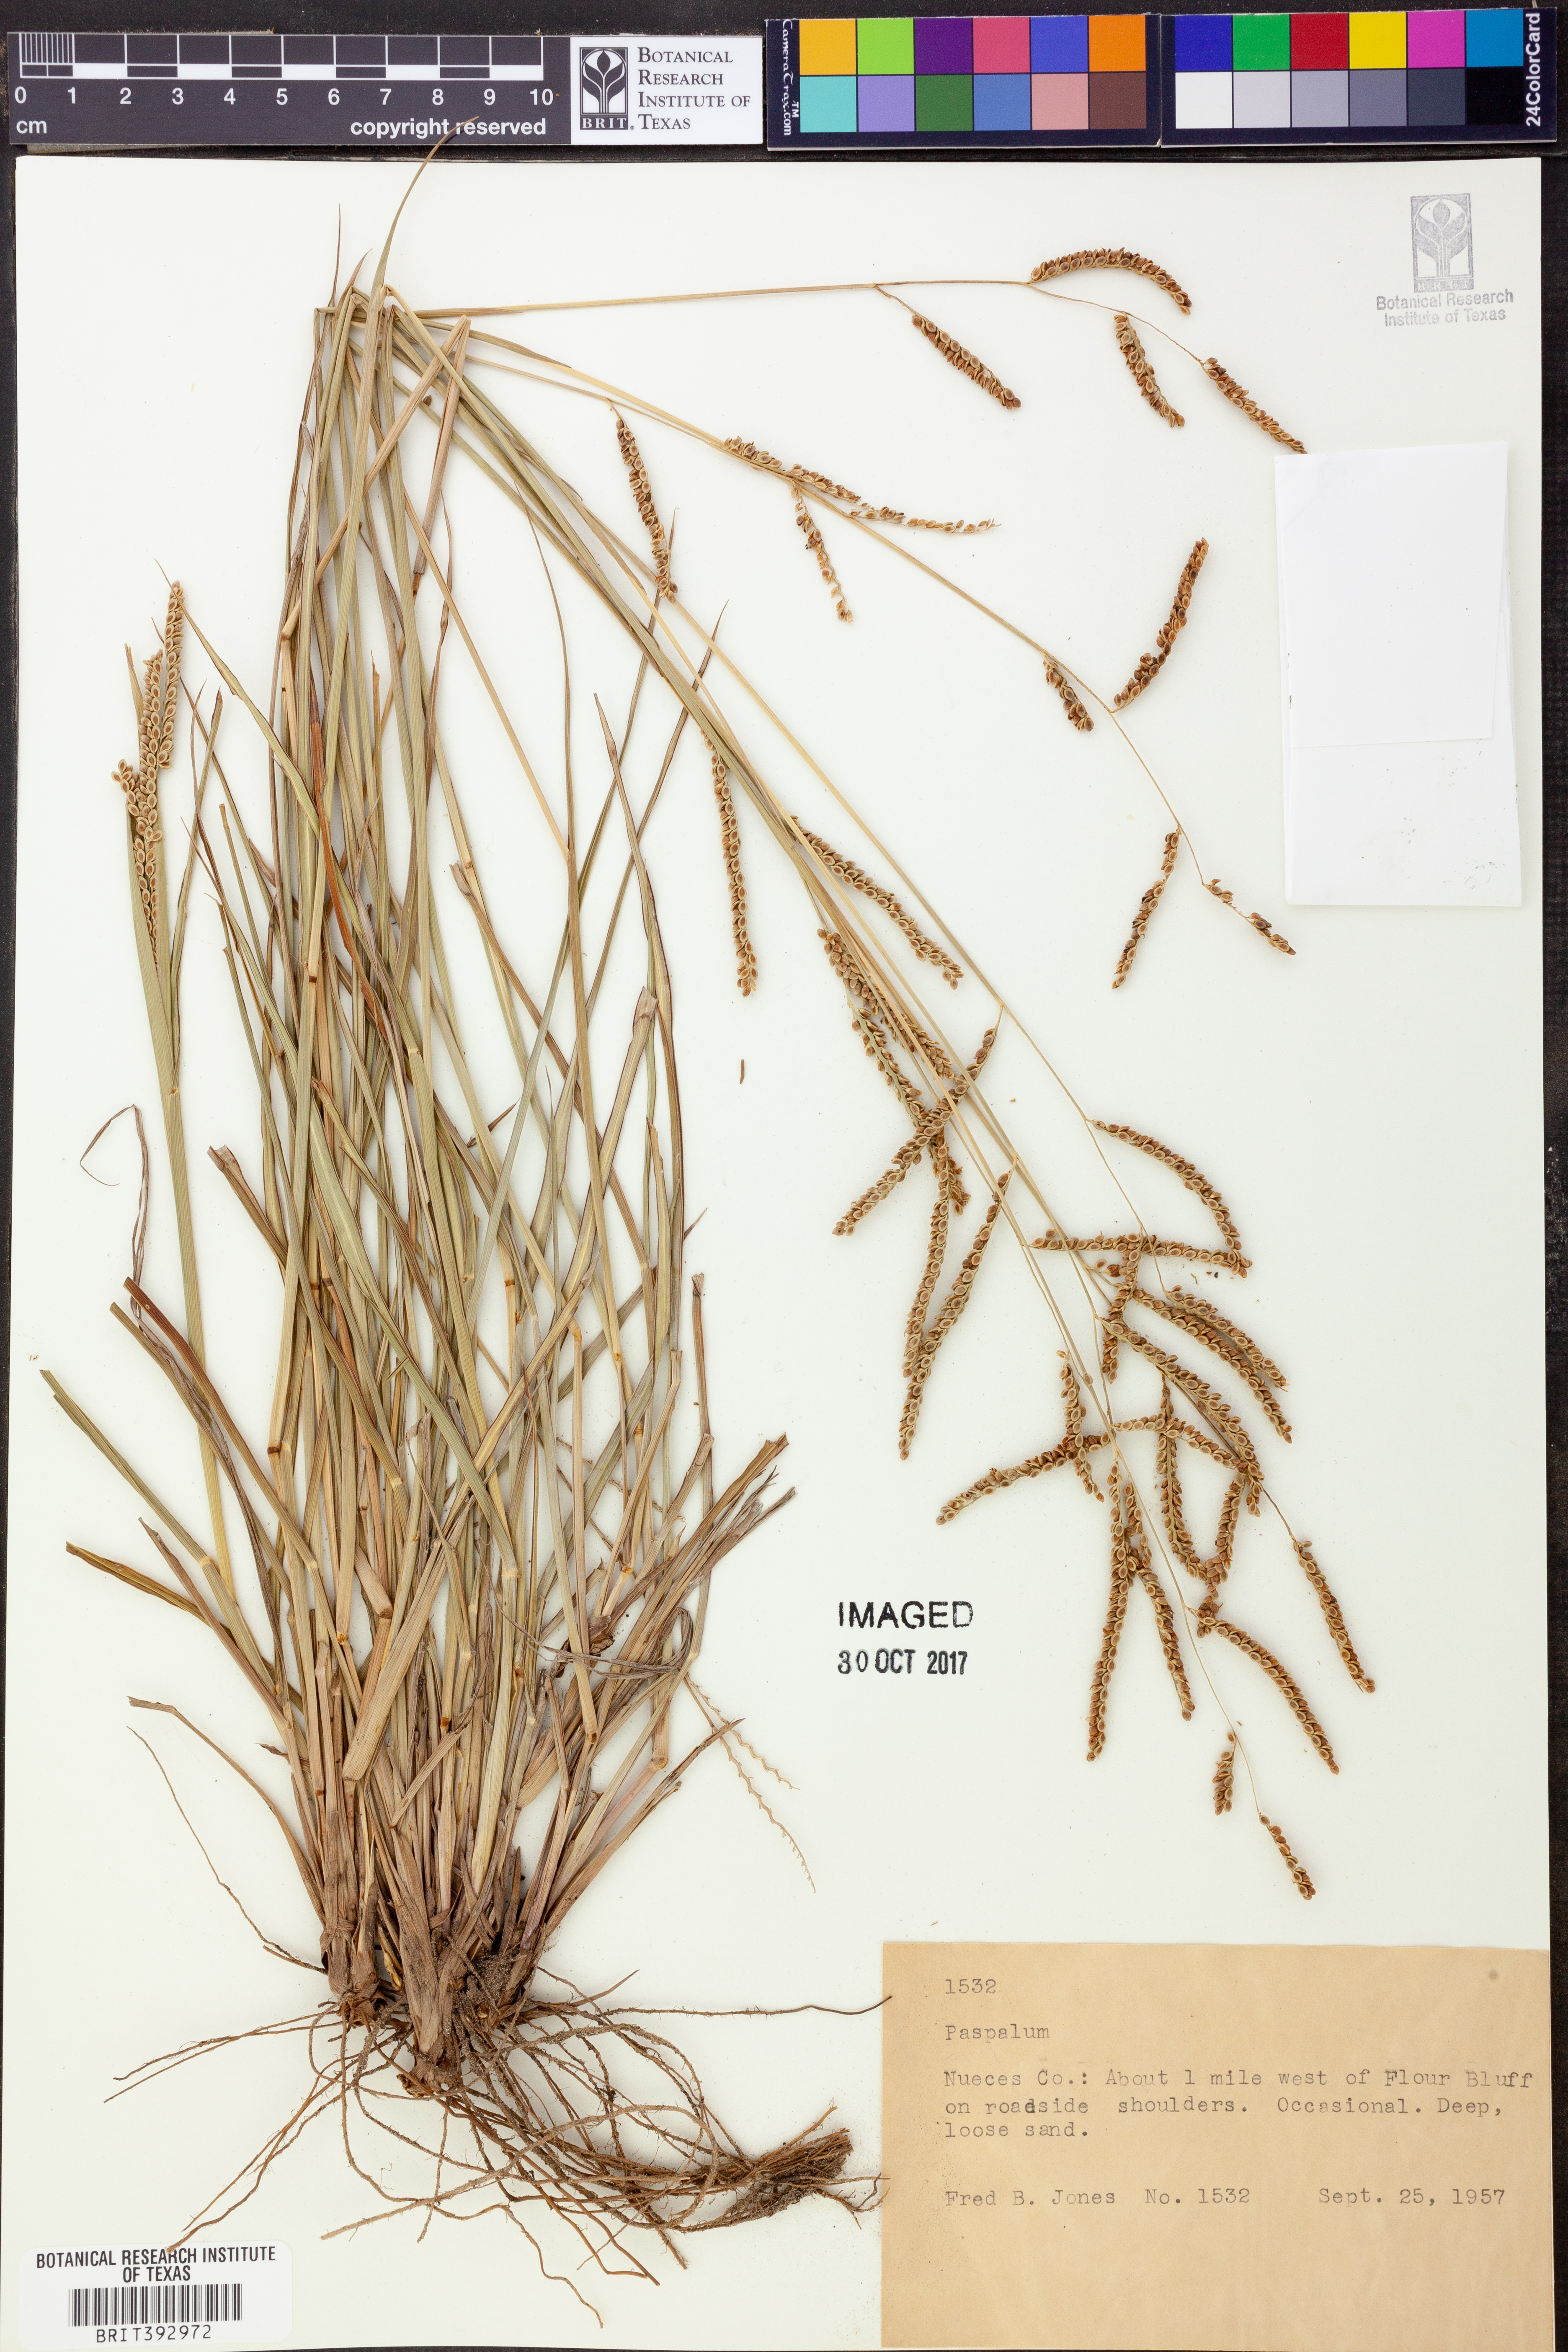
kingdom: Plantae
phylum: Tracheophyta
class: Liliopsida
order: Poales
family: Poaceae
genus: Paspalum
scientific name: Paspalum
